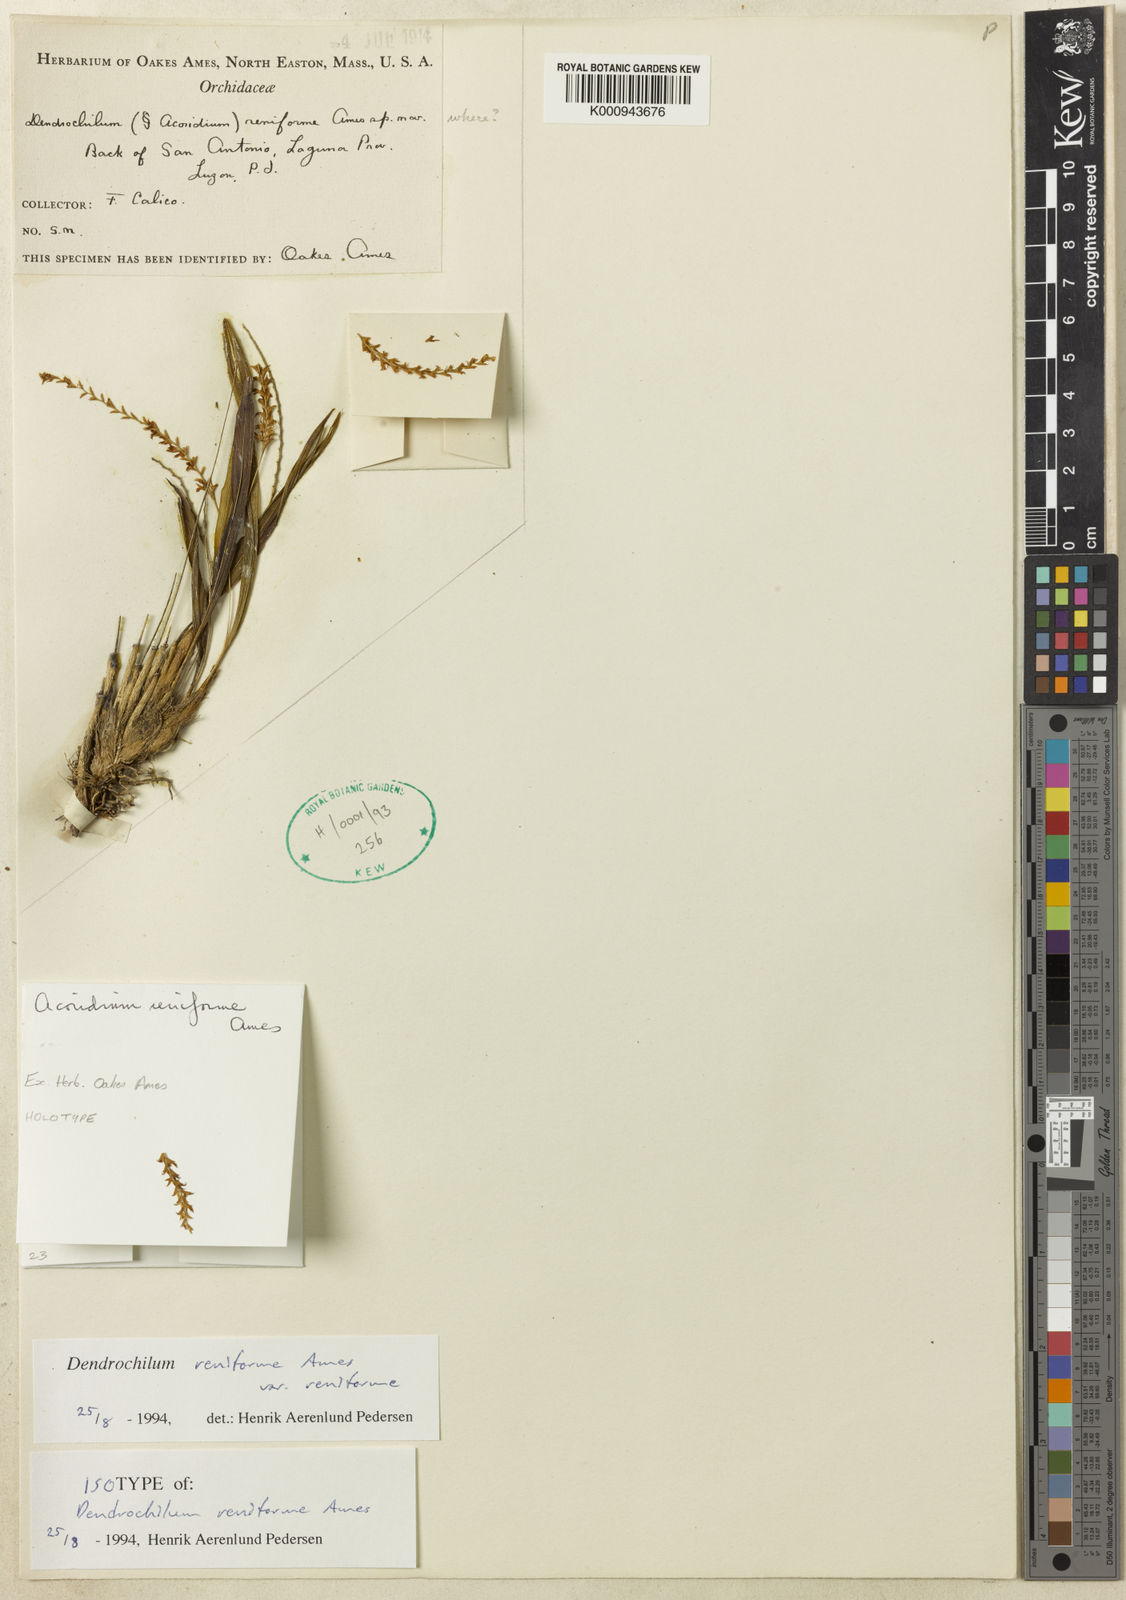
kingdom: Plantae
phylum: Tracheophyta
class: Liliopsida
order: Asparagales
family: Orchidaceae
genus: Coelogyne
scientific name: Coelogyne reniformis
